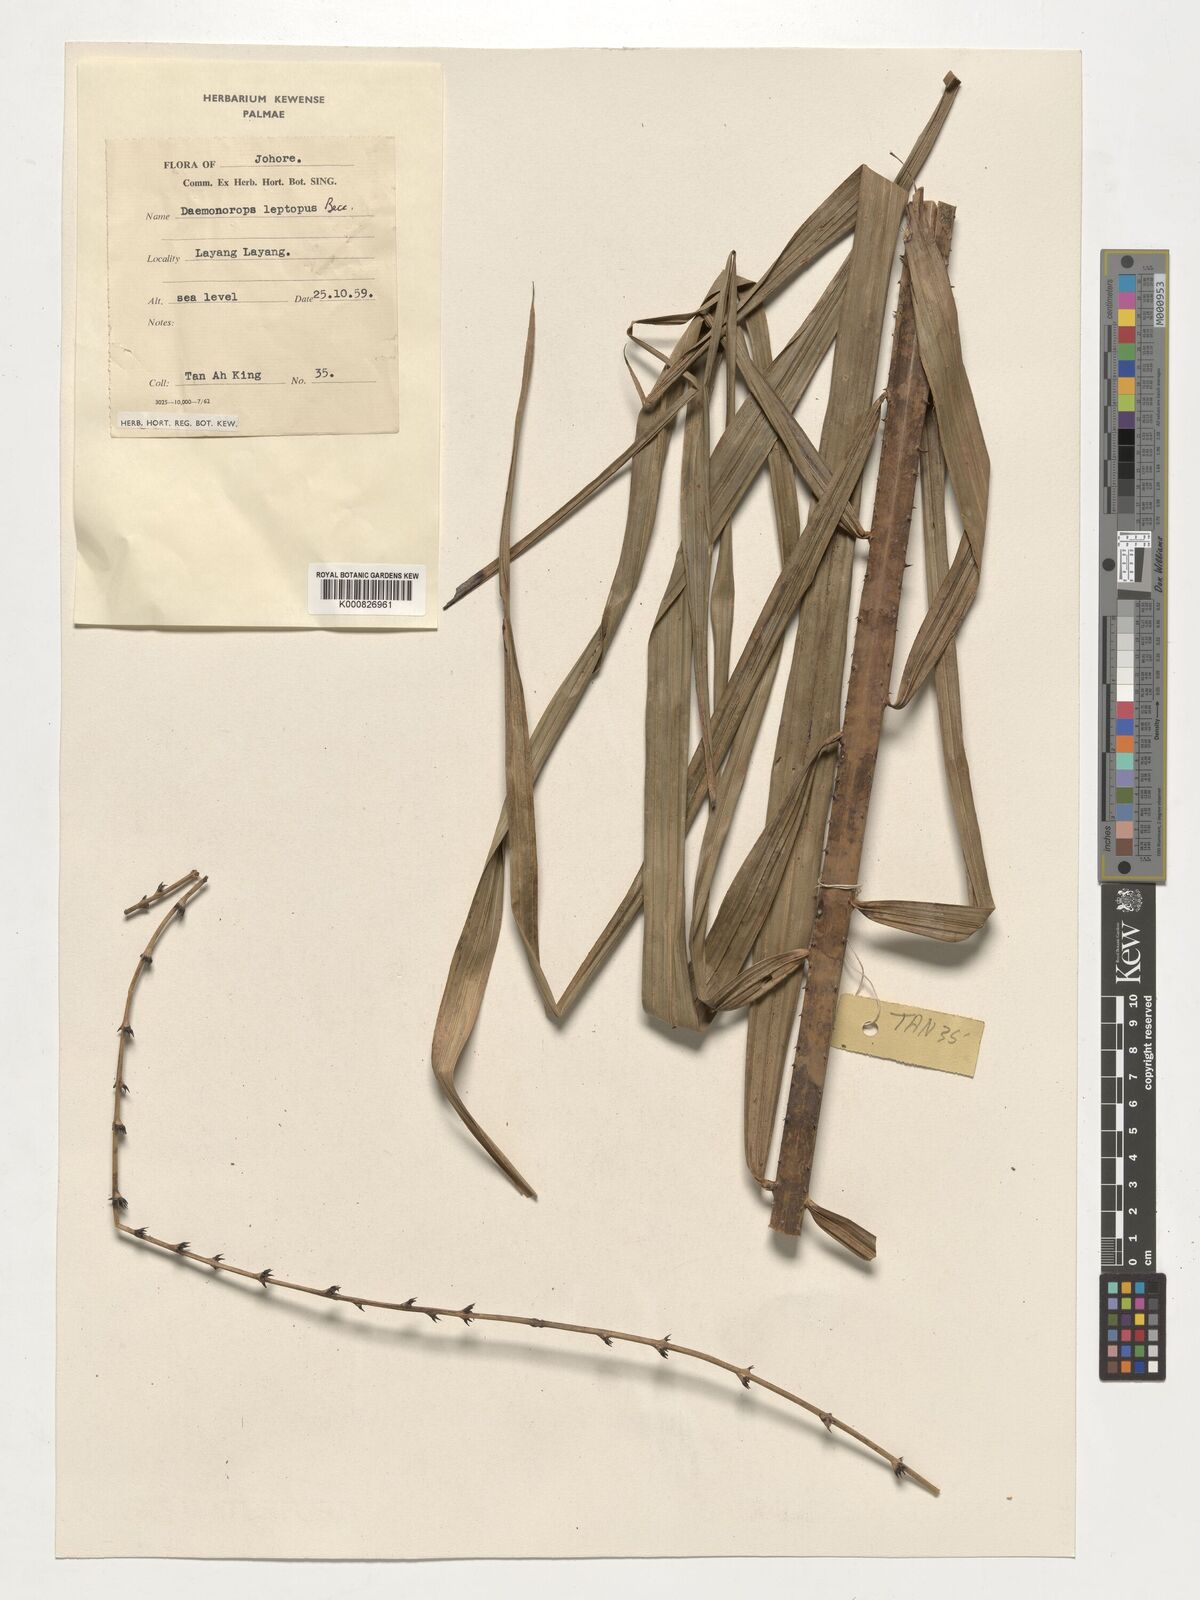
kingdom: Plantae
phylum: Tracheophyta
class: Liliopsida
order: Arecales
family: Arecaceae
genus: Calamus
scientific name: Calamus leptopus
